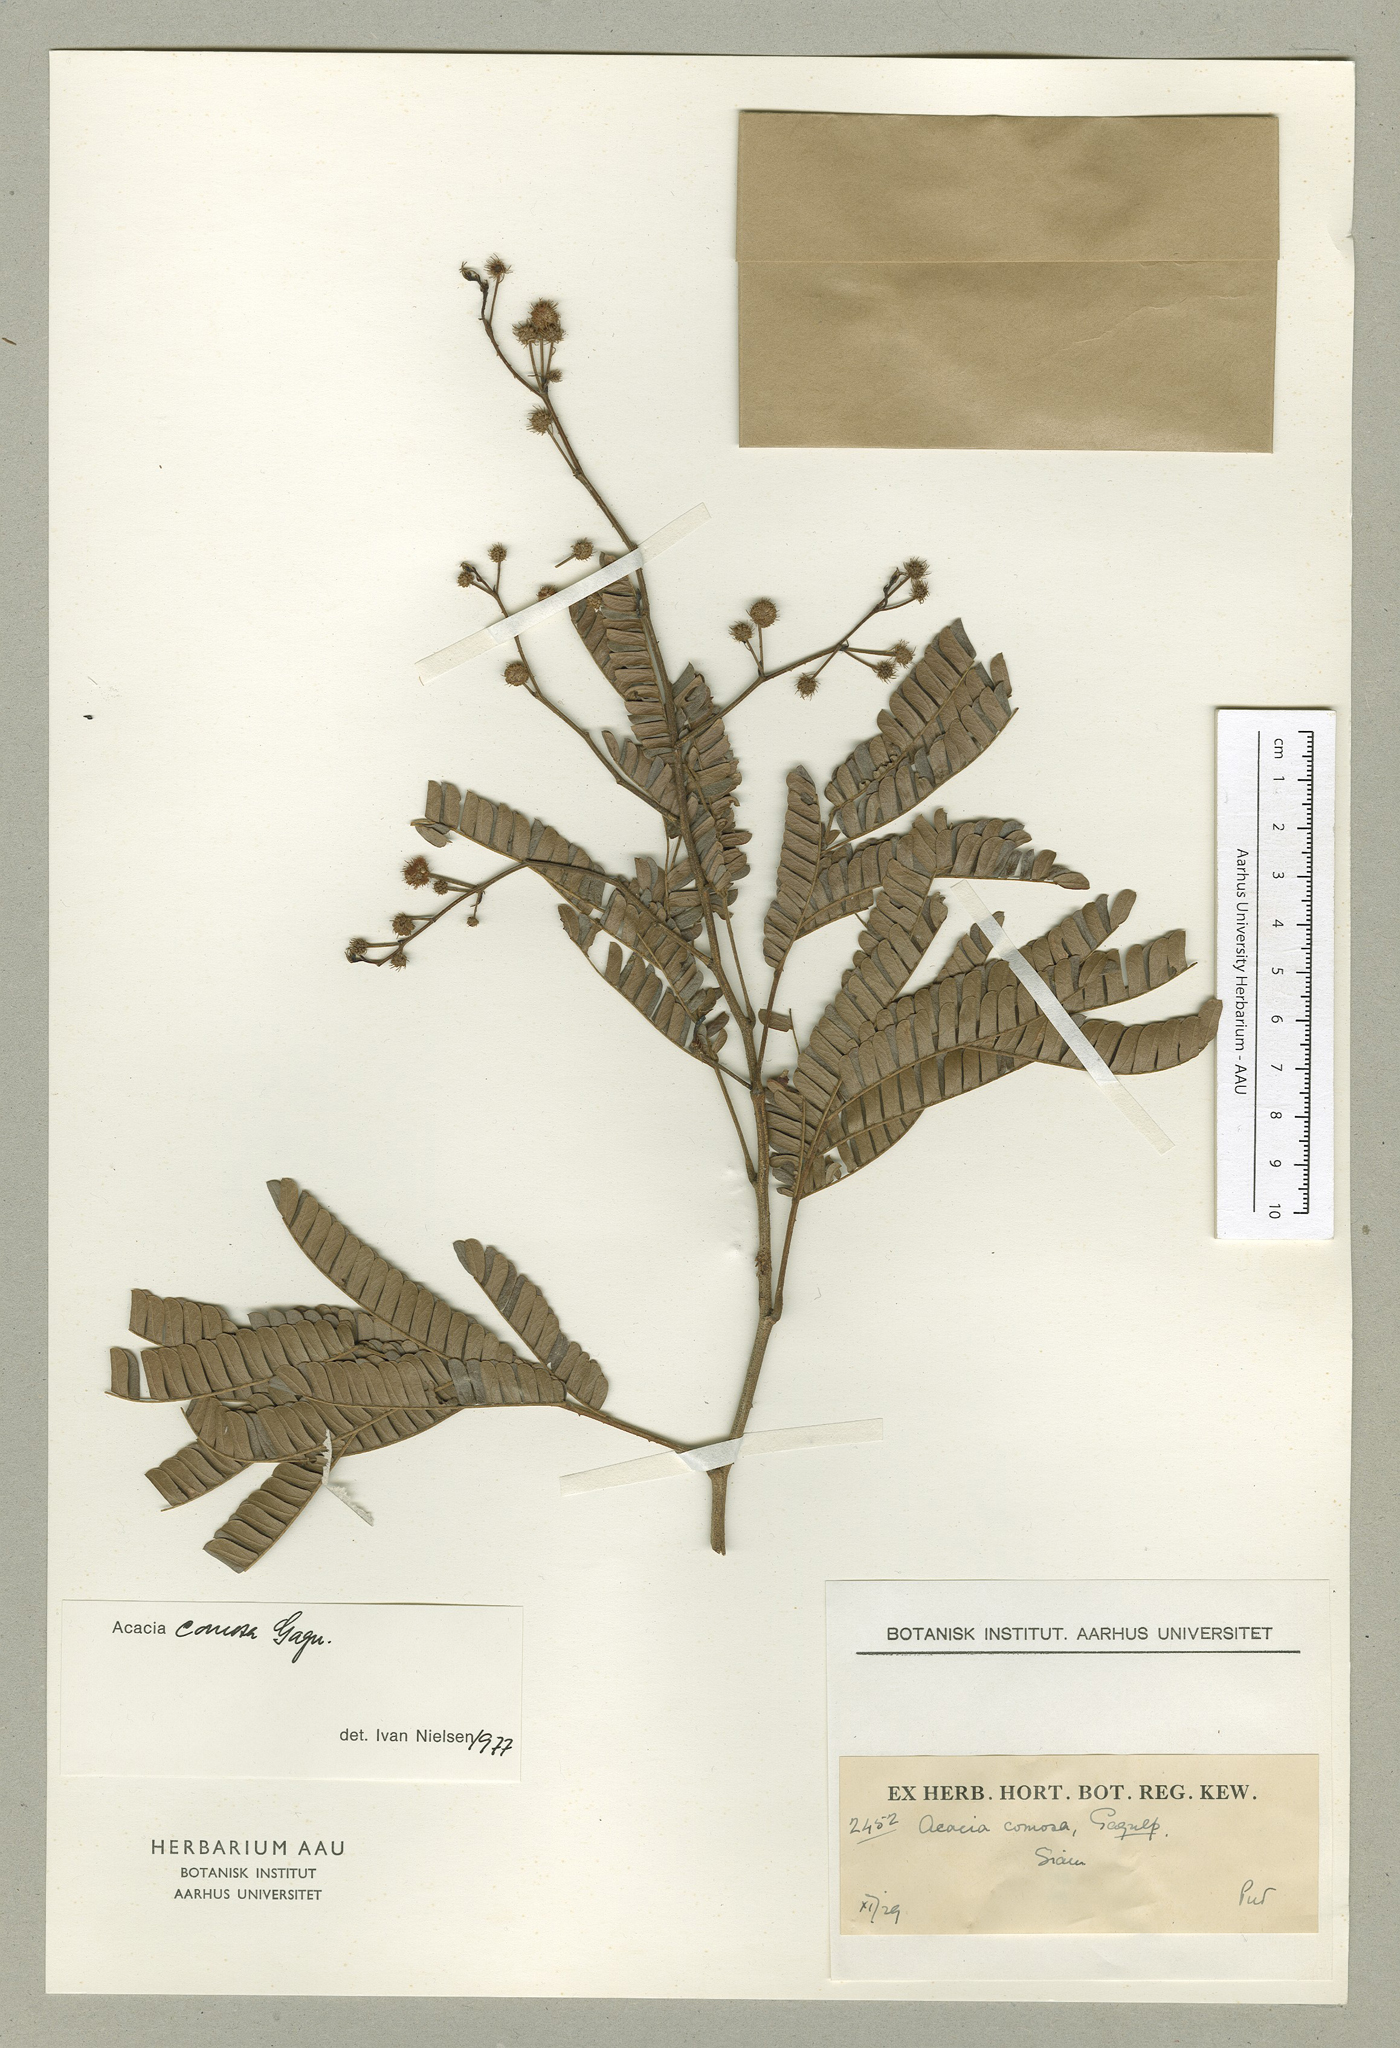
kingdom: Plantae
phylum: Tracheophyta
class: Magnoliopsida
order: Fabales
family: Fabaceae
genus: Senegalia
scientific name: Senegalia comosa
